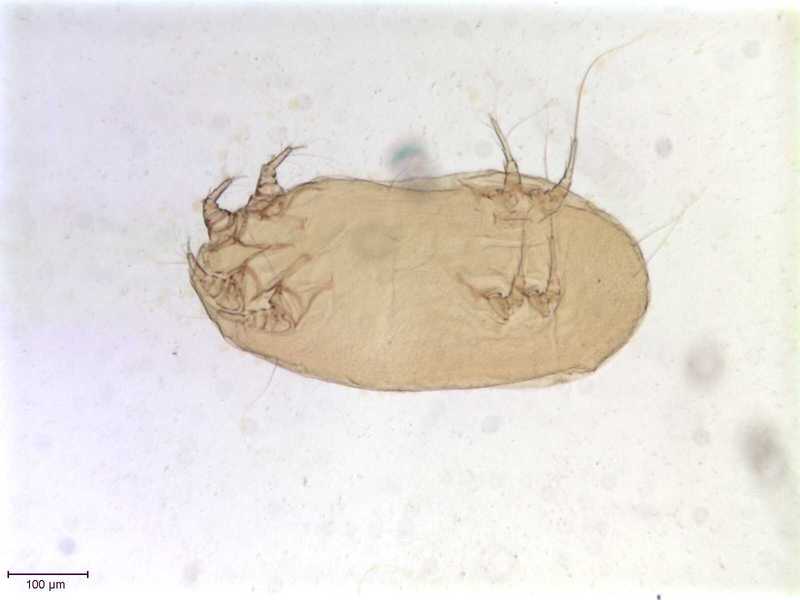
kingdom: Animalia
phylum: Arthropoda
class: Arachnida
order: Sarcoptiformes
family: Gabuciniidae
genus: Gabucinia
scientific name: Gabucinia nisi
